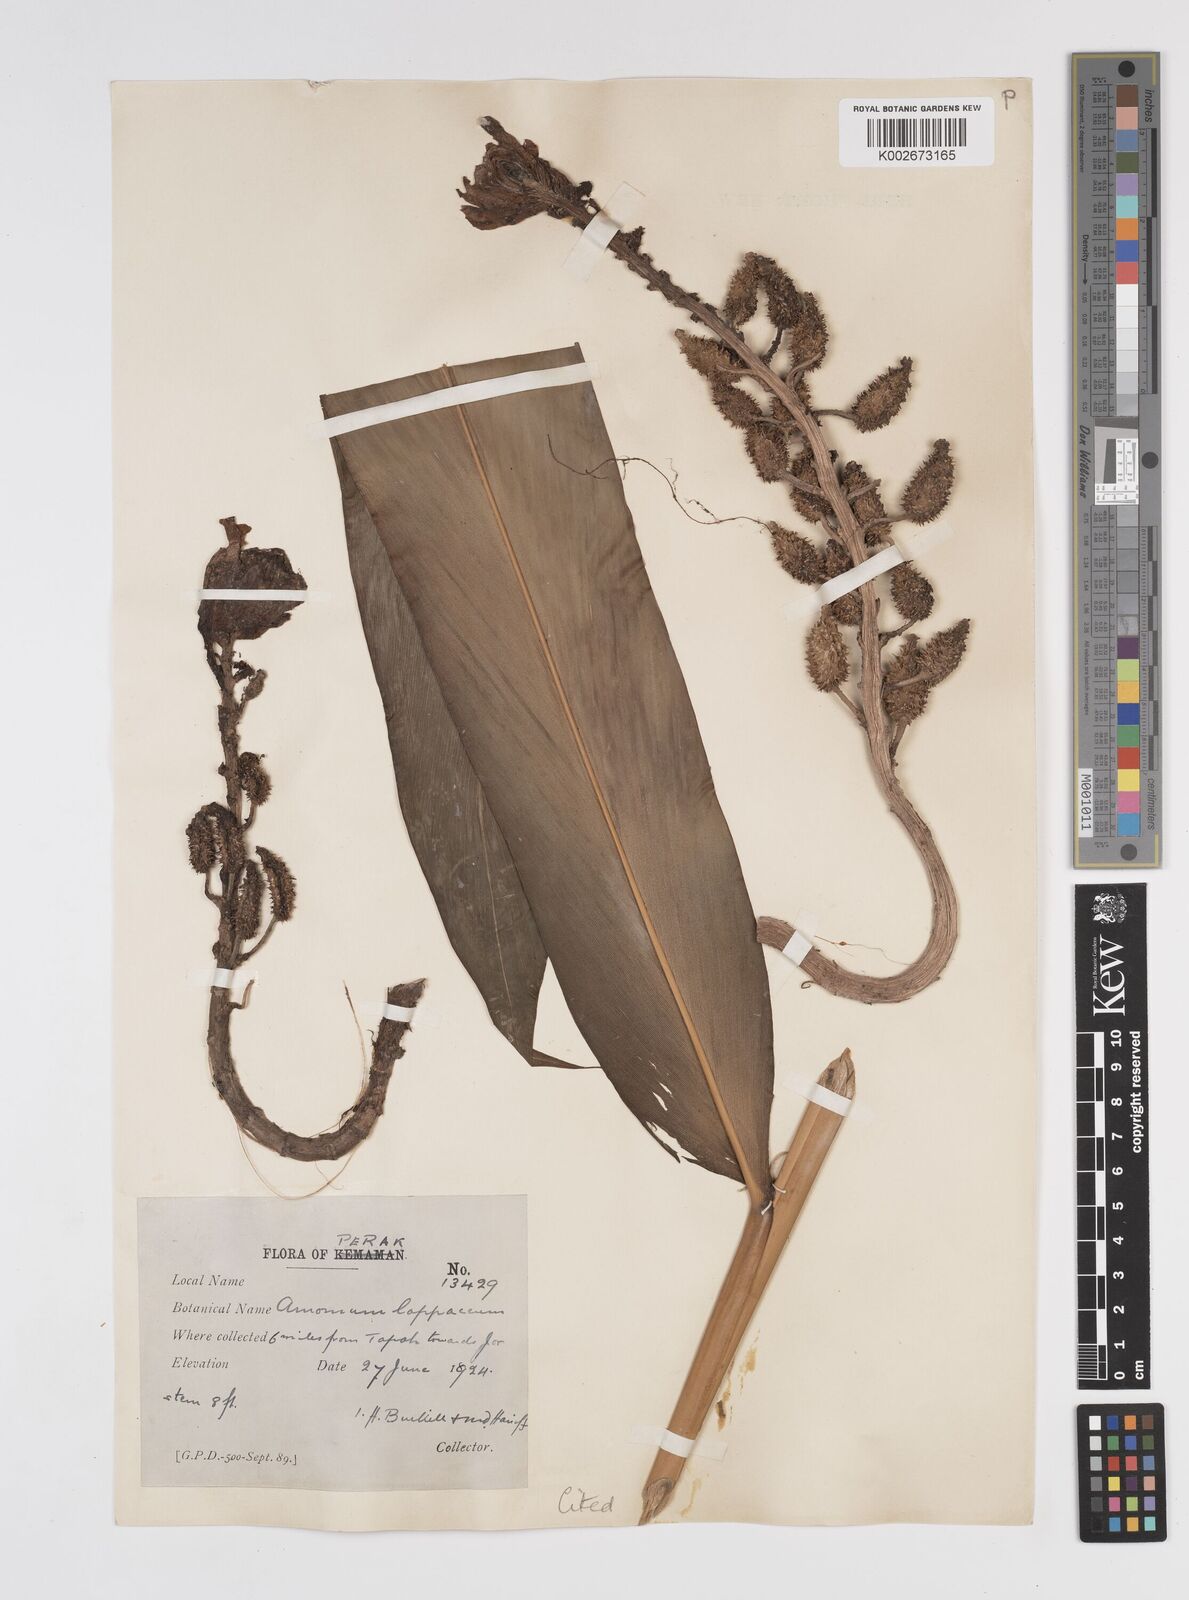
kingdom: Plantae
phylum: Tracheophyta
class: Liliopsida
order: Zingiberales
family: Zingiberaceae
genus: Meistera
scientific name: Meistera lappacea
